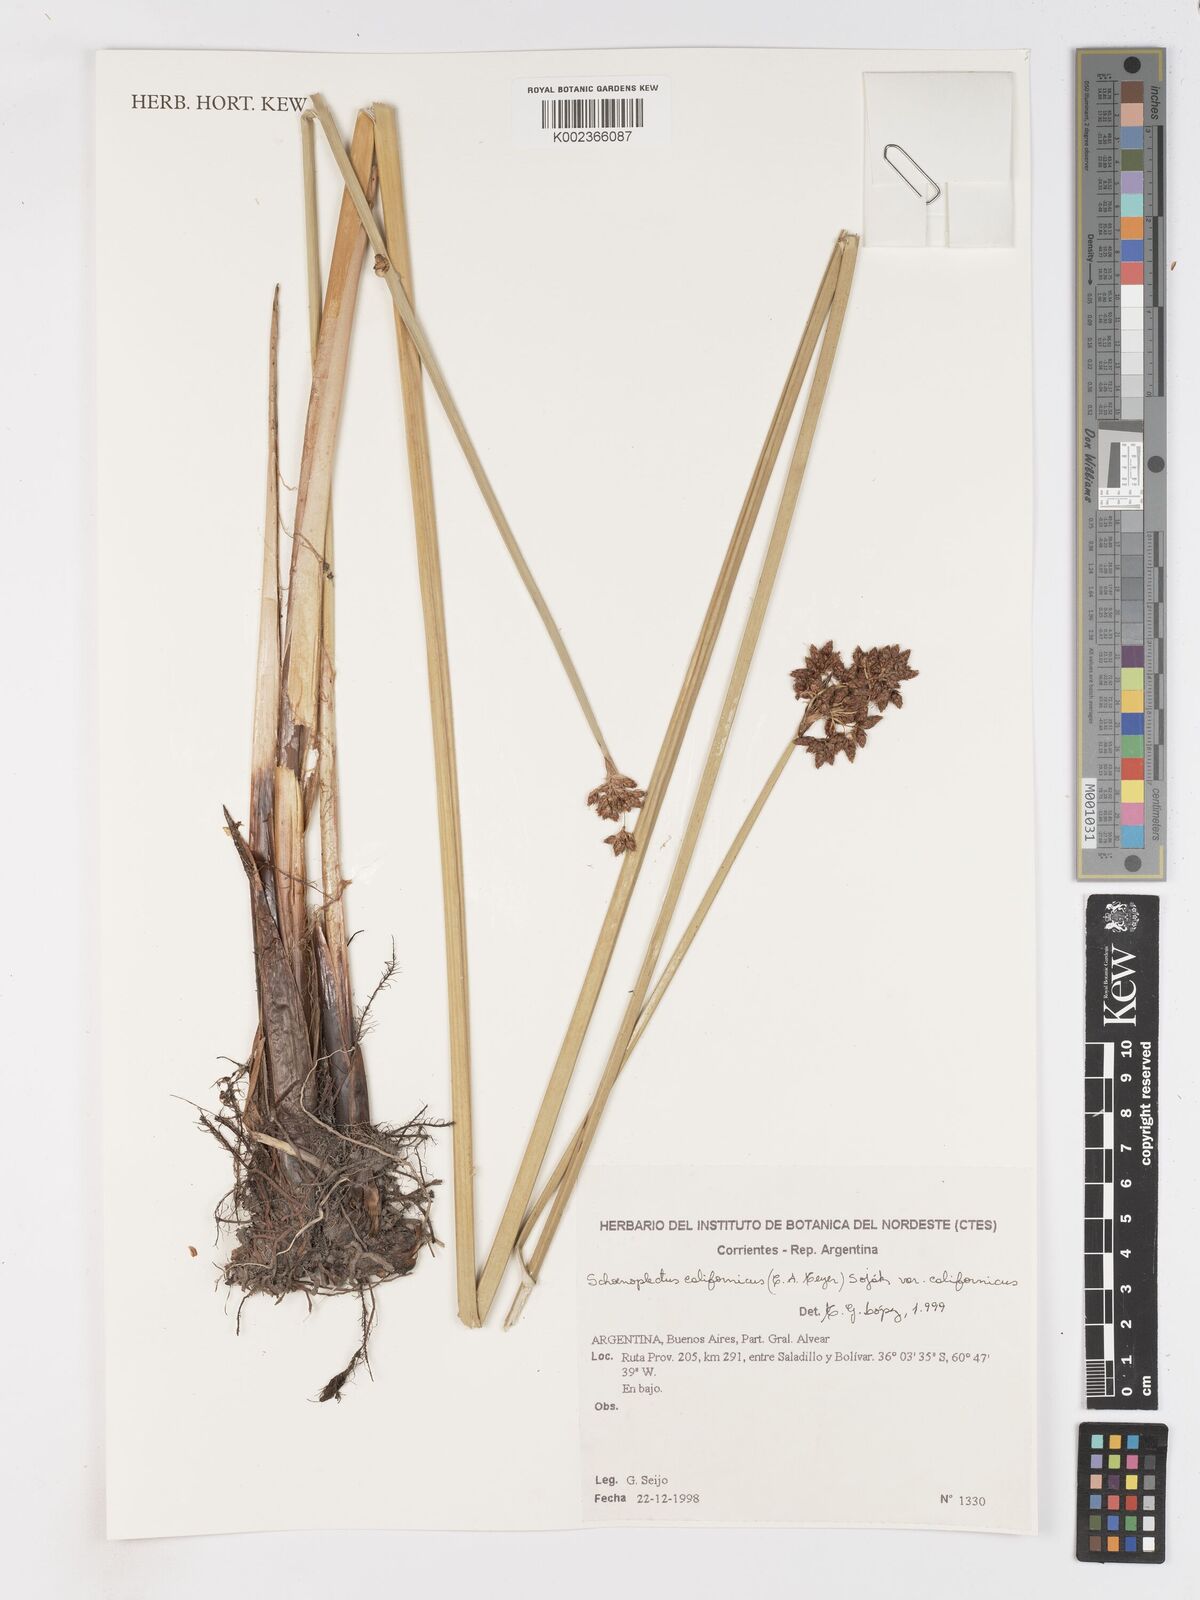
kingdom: Plantae
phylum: Tracheophyta
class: Liliopsida
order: Poales
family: Cyperaceae
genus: Schoenoplectus
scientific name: Schoenoplectus californicus
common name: California bulrush
